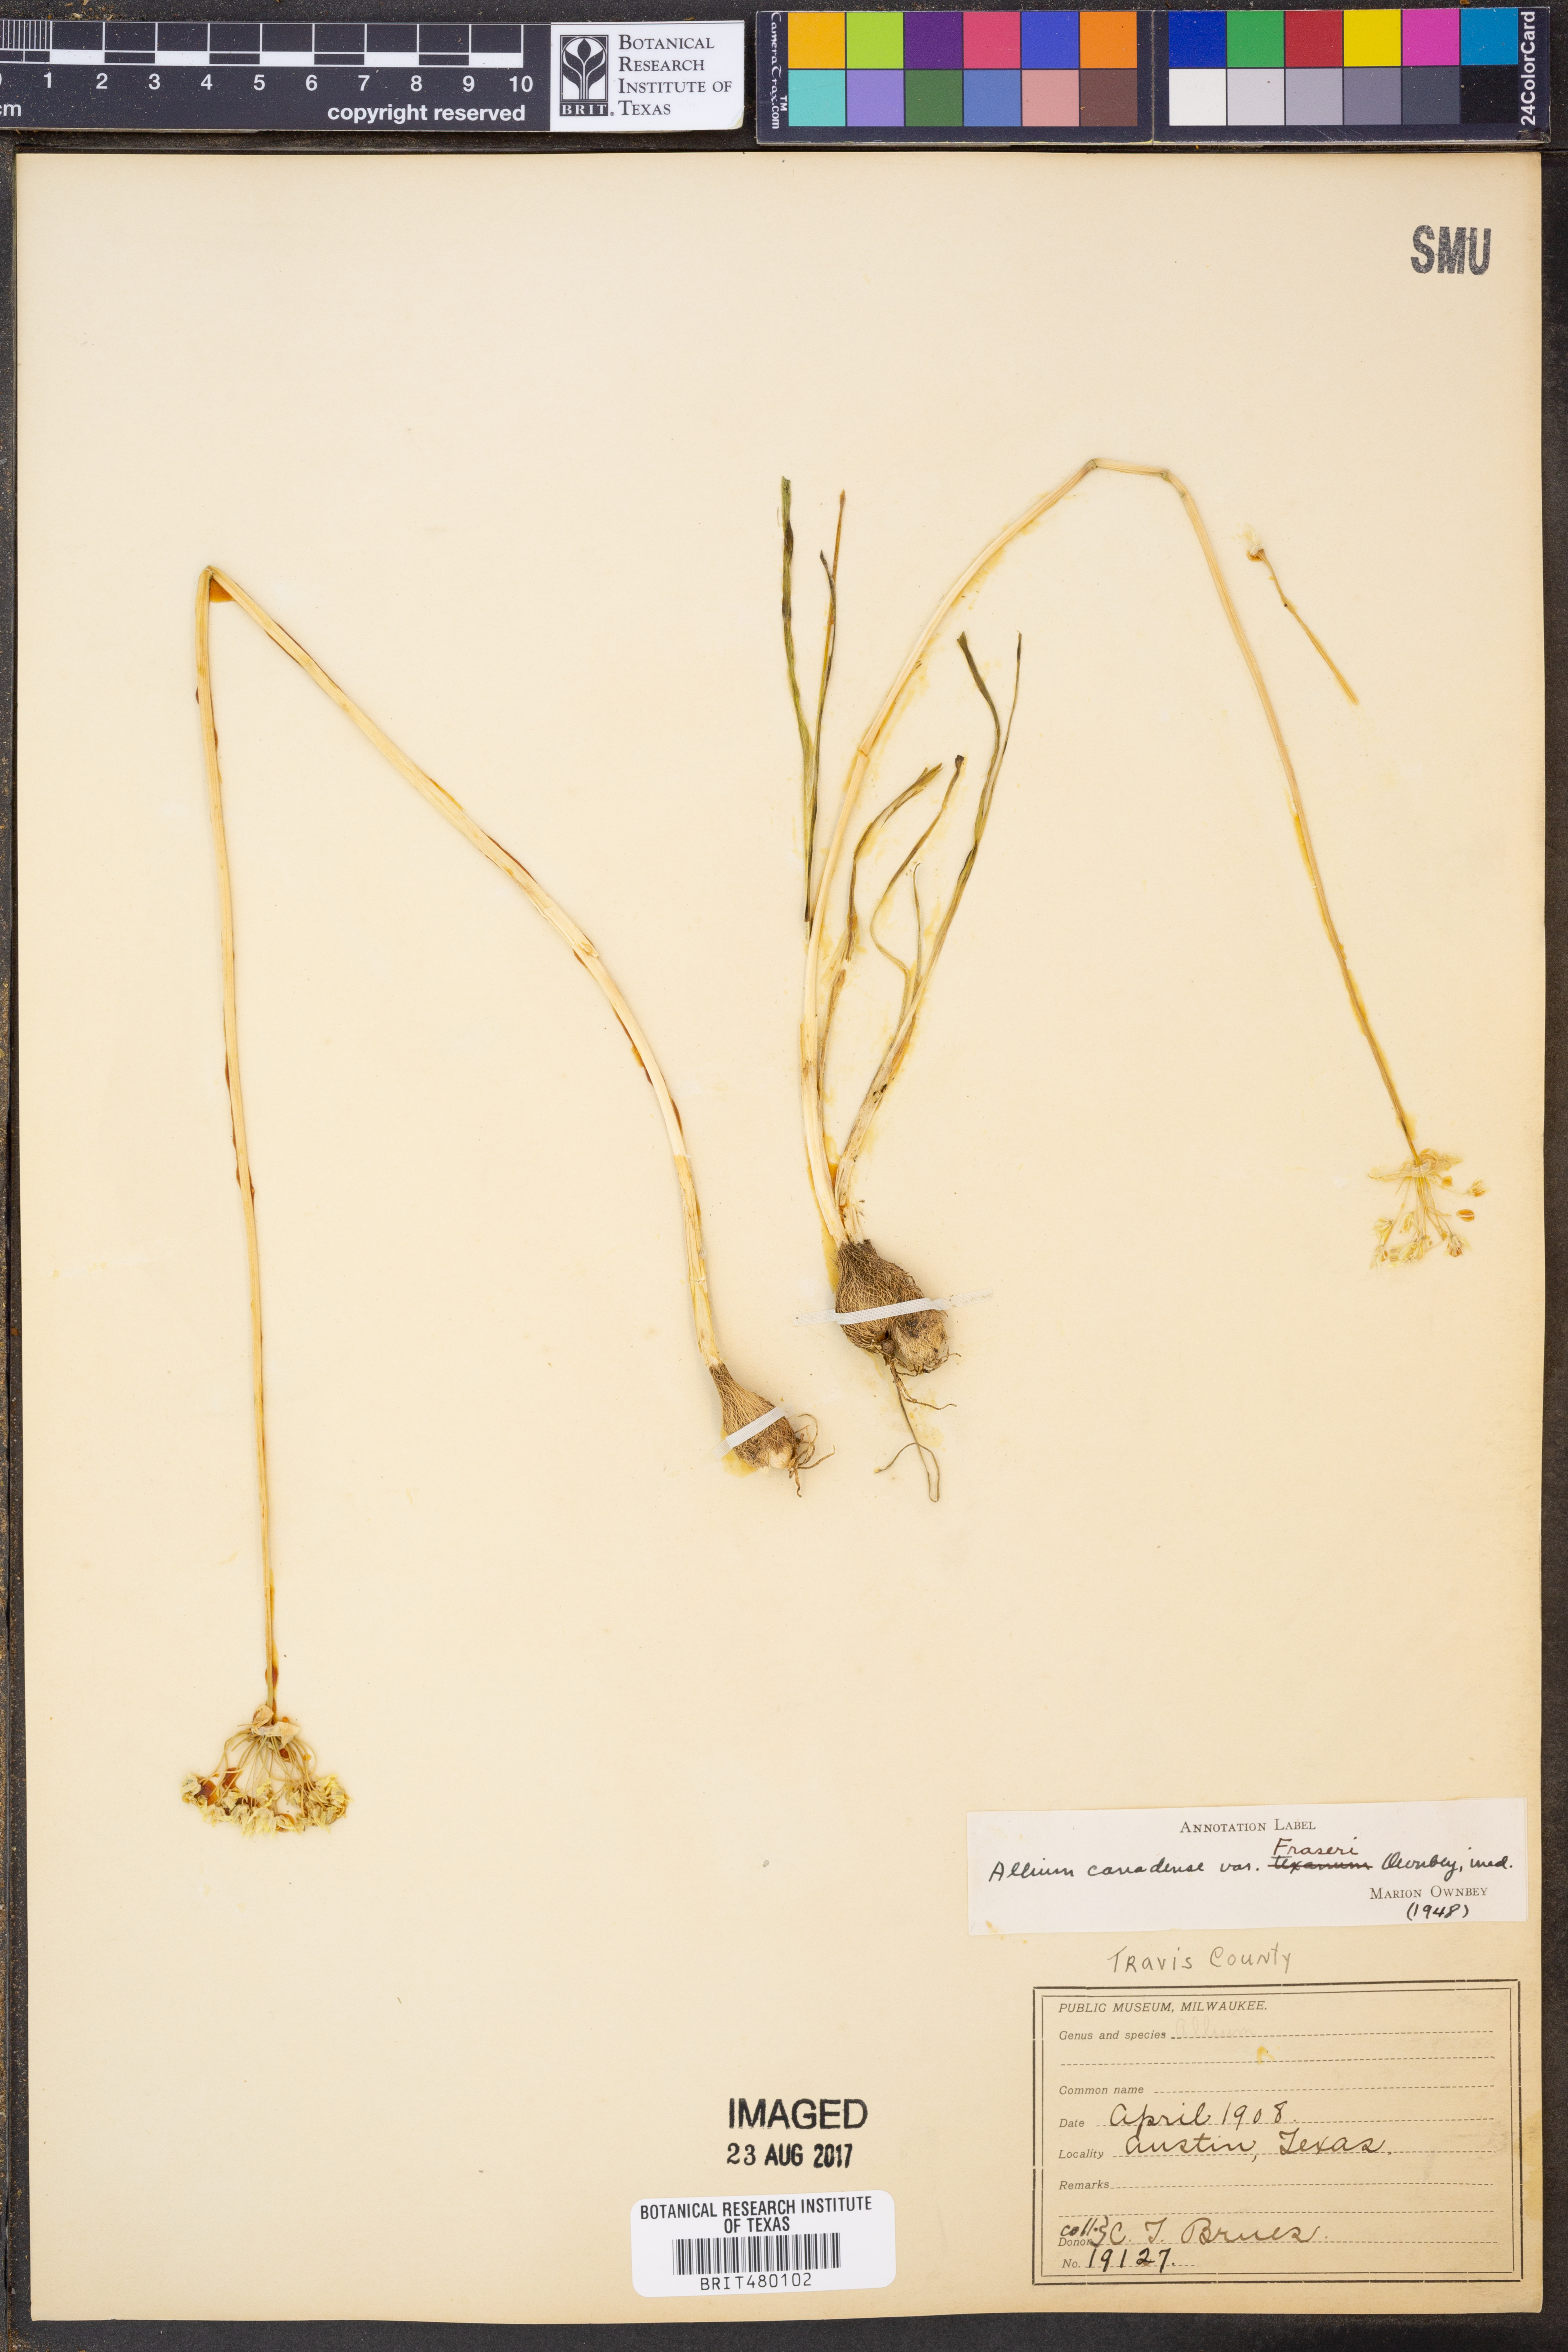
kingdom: Plantae
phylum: Tracheophyta
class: Liliopsida
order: Asparagales
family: Amaryllidaceae
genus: Allium
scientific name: Allium fraseri
